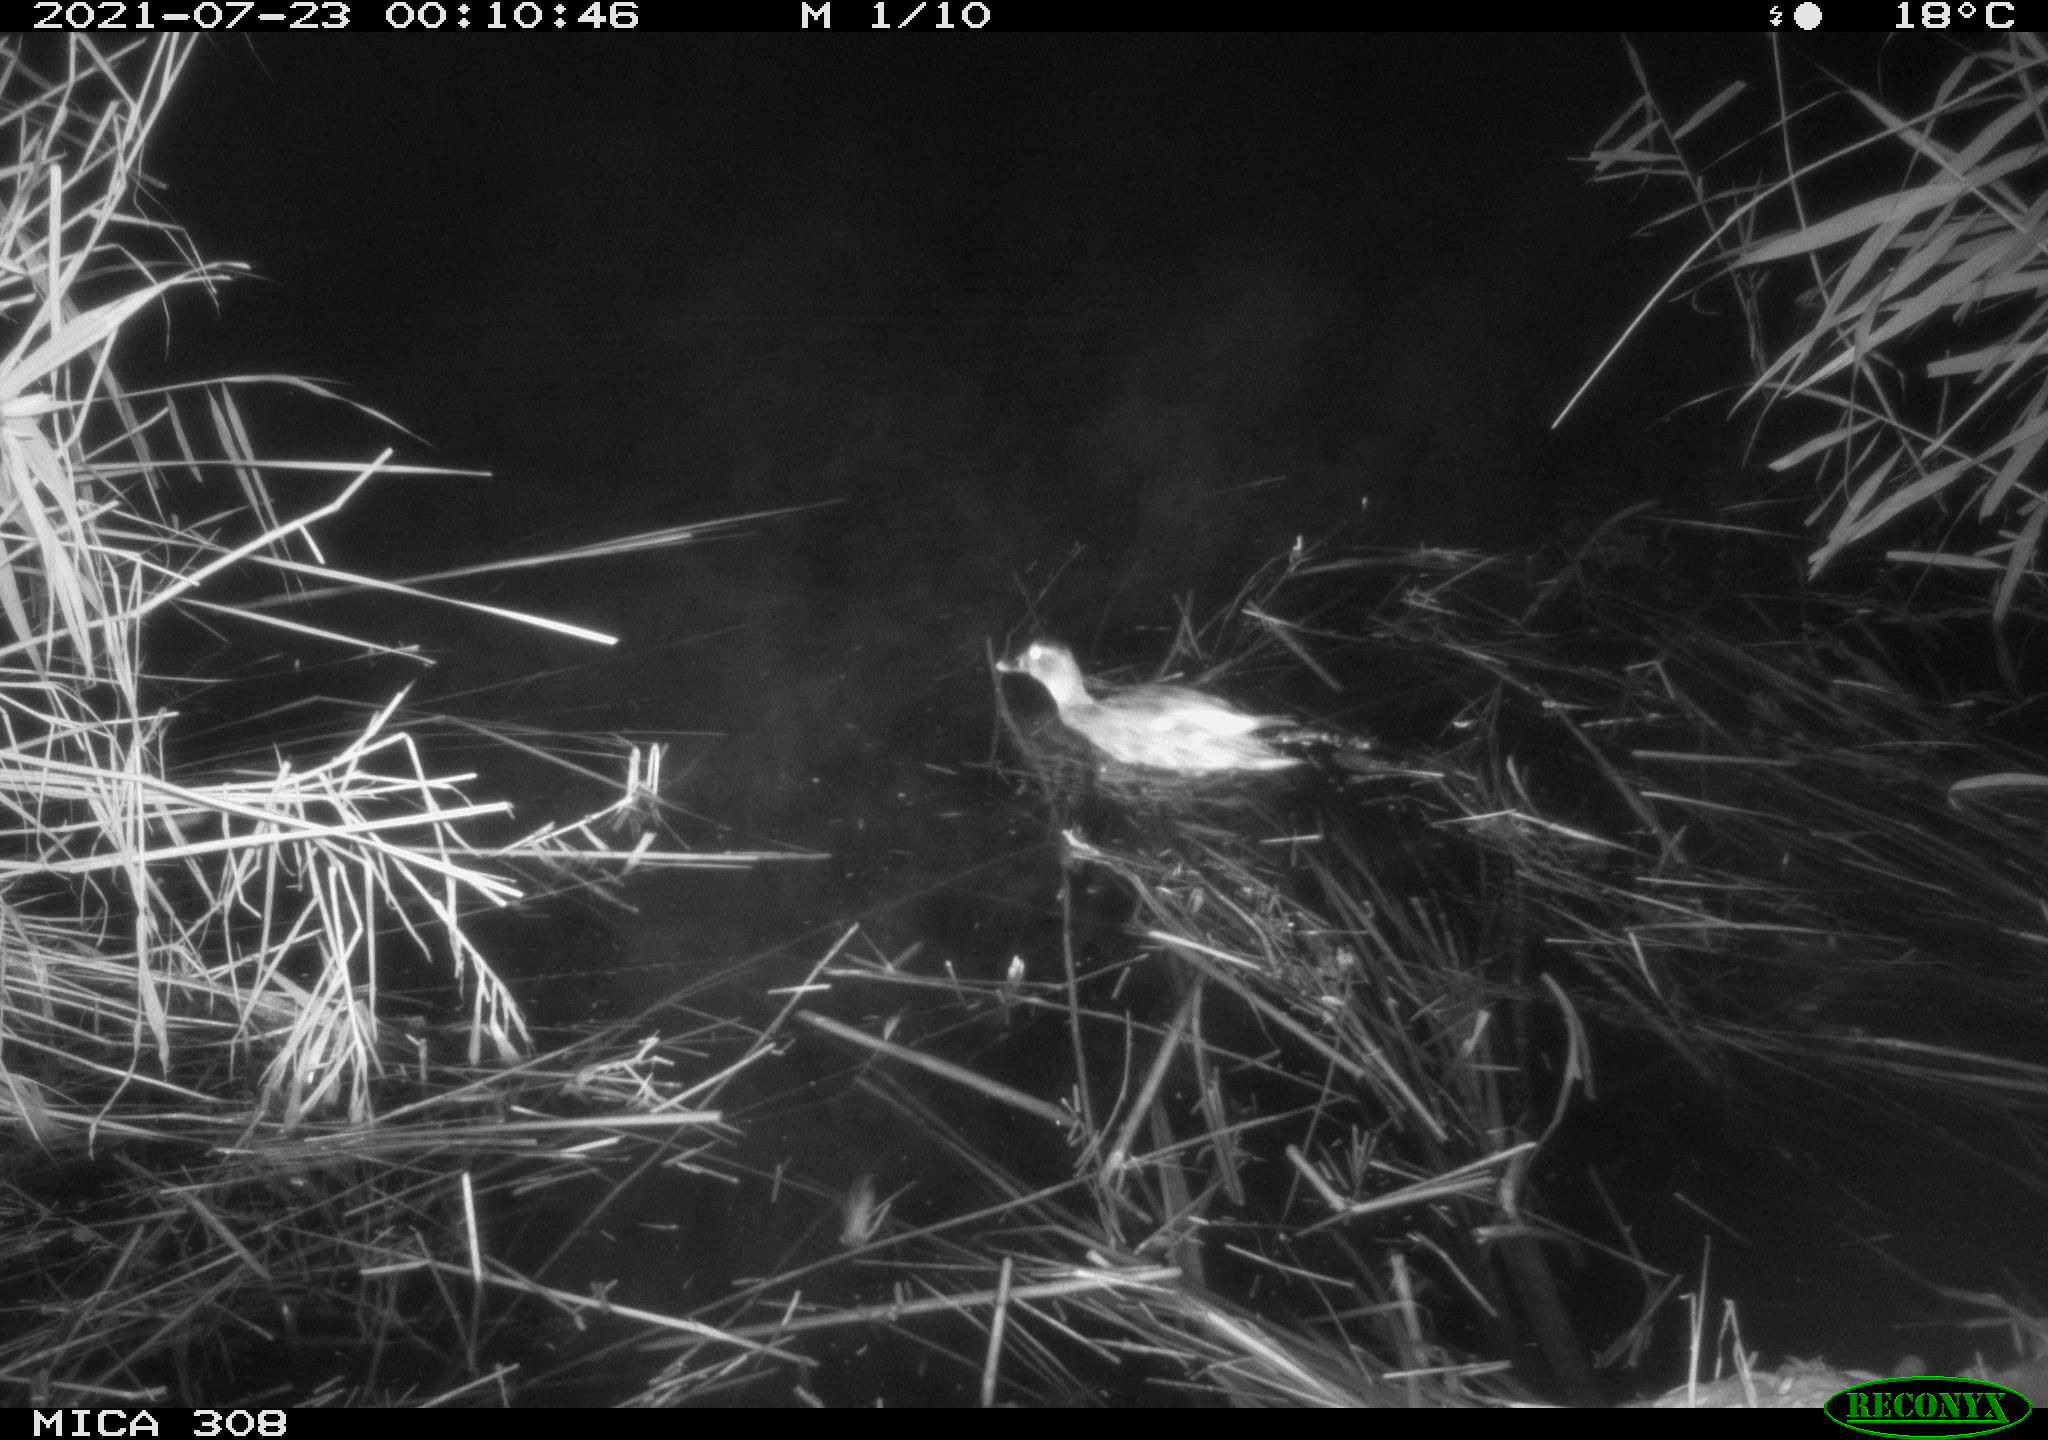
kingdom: Animalia
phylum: Chordata
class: Aves
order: Anseriformes
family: Anatidae
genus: Anas
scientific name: Anas platyrhynchos
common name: Mallard
